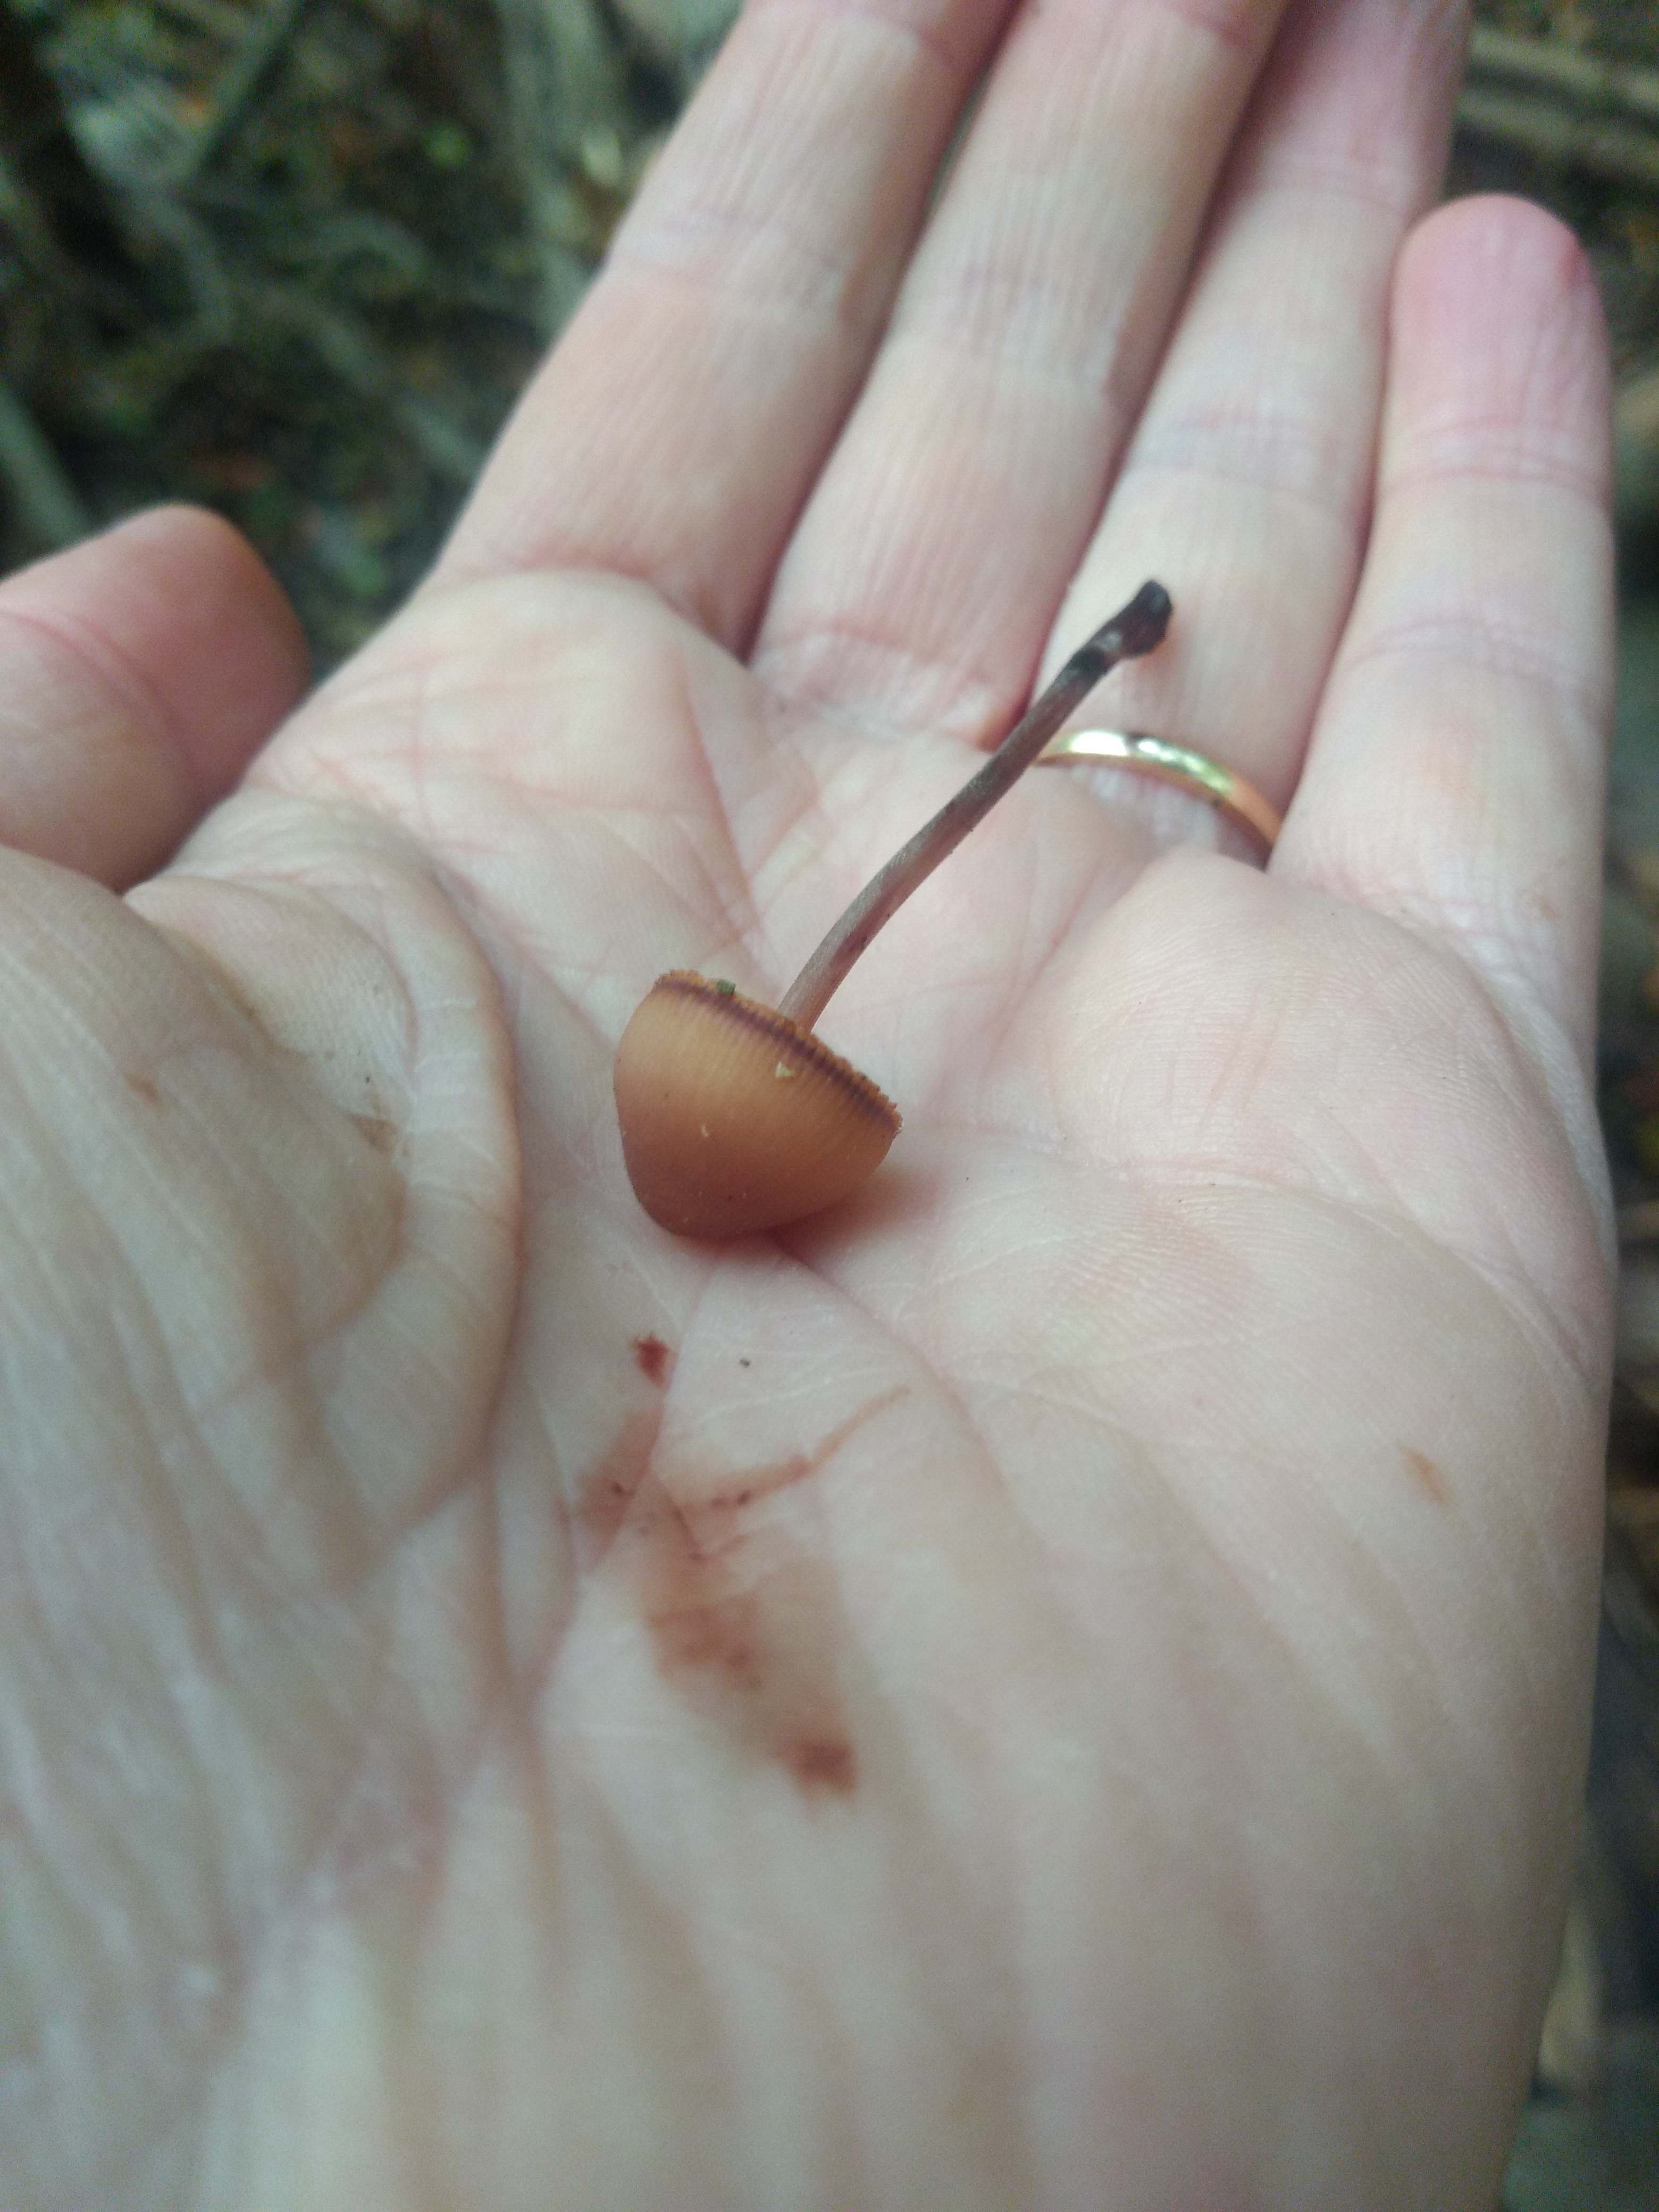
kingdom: Fungi
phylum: Basidiomycota
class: Agaricomycetes
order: Agaricales
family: Mycenaceae
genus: Mycena
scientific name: Mycena haematopus
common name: blødende huesvamp
